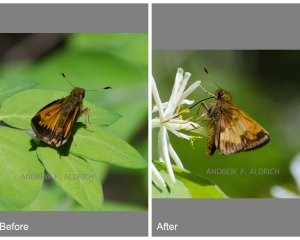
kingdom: Animalia
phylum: Arthropoda
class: Insecta
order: Lepidoptera
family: Hesperiidae
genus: Lon
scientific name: Lon hobomok
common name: Hobomok Skipper
